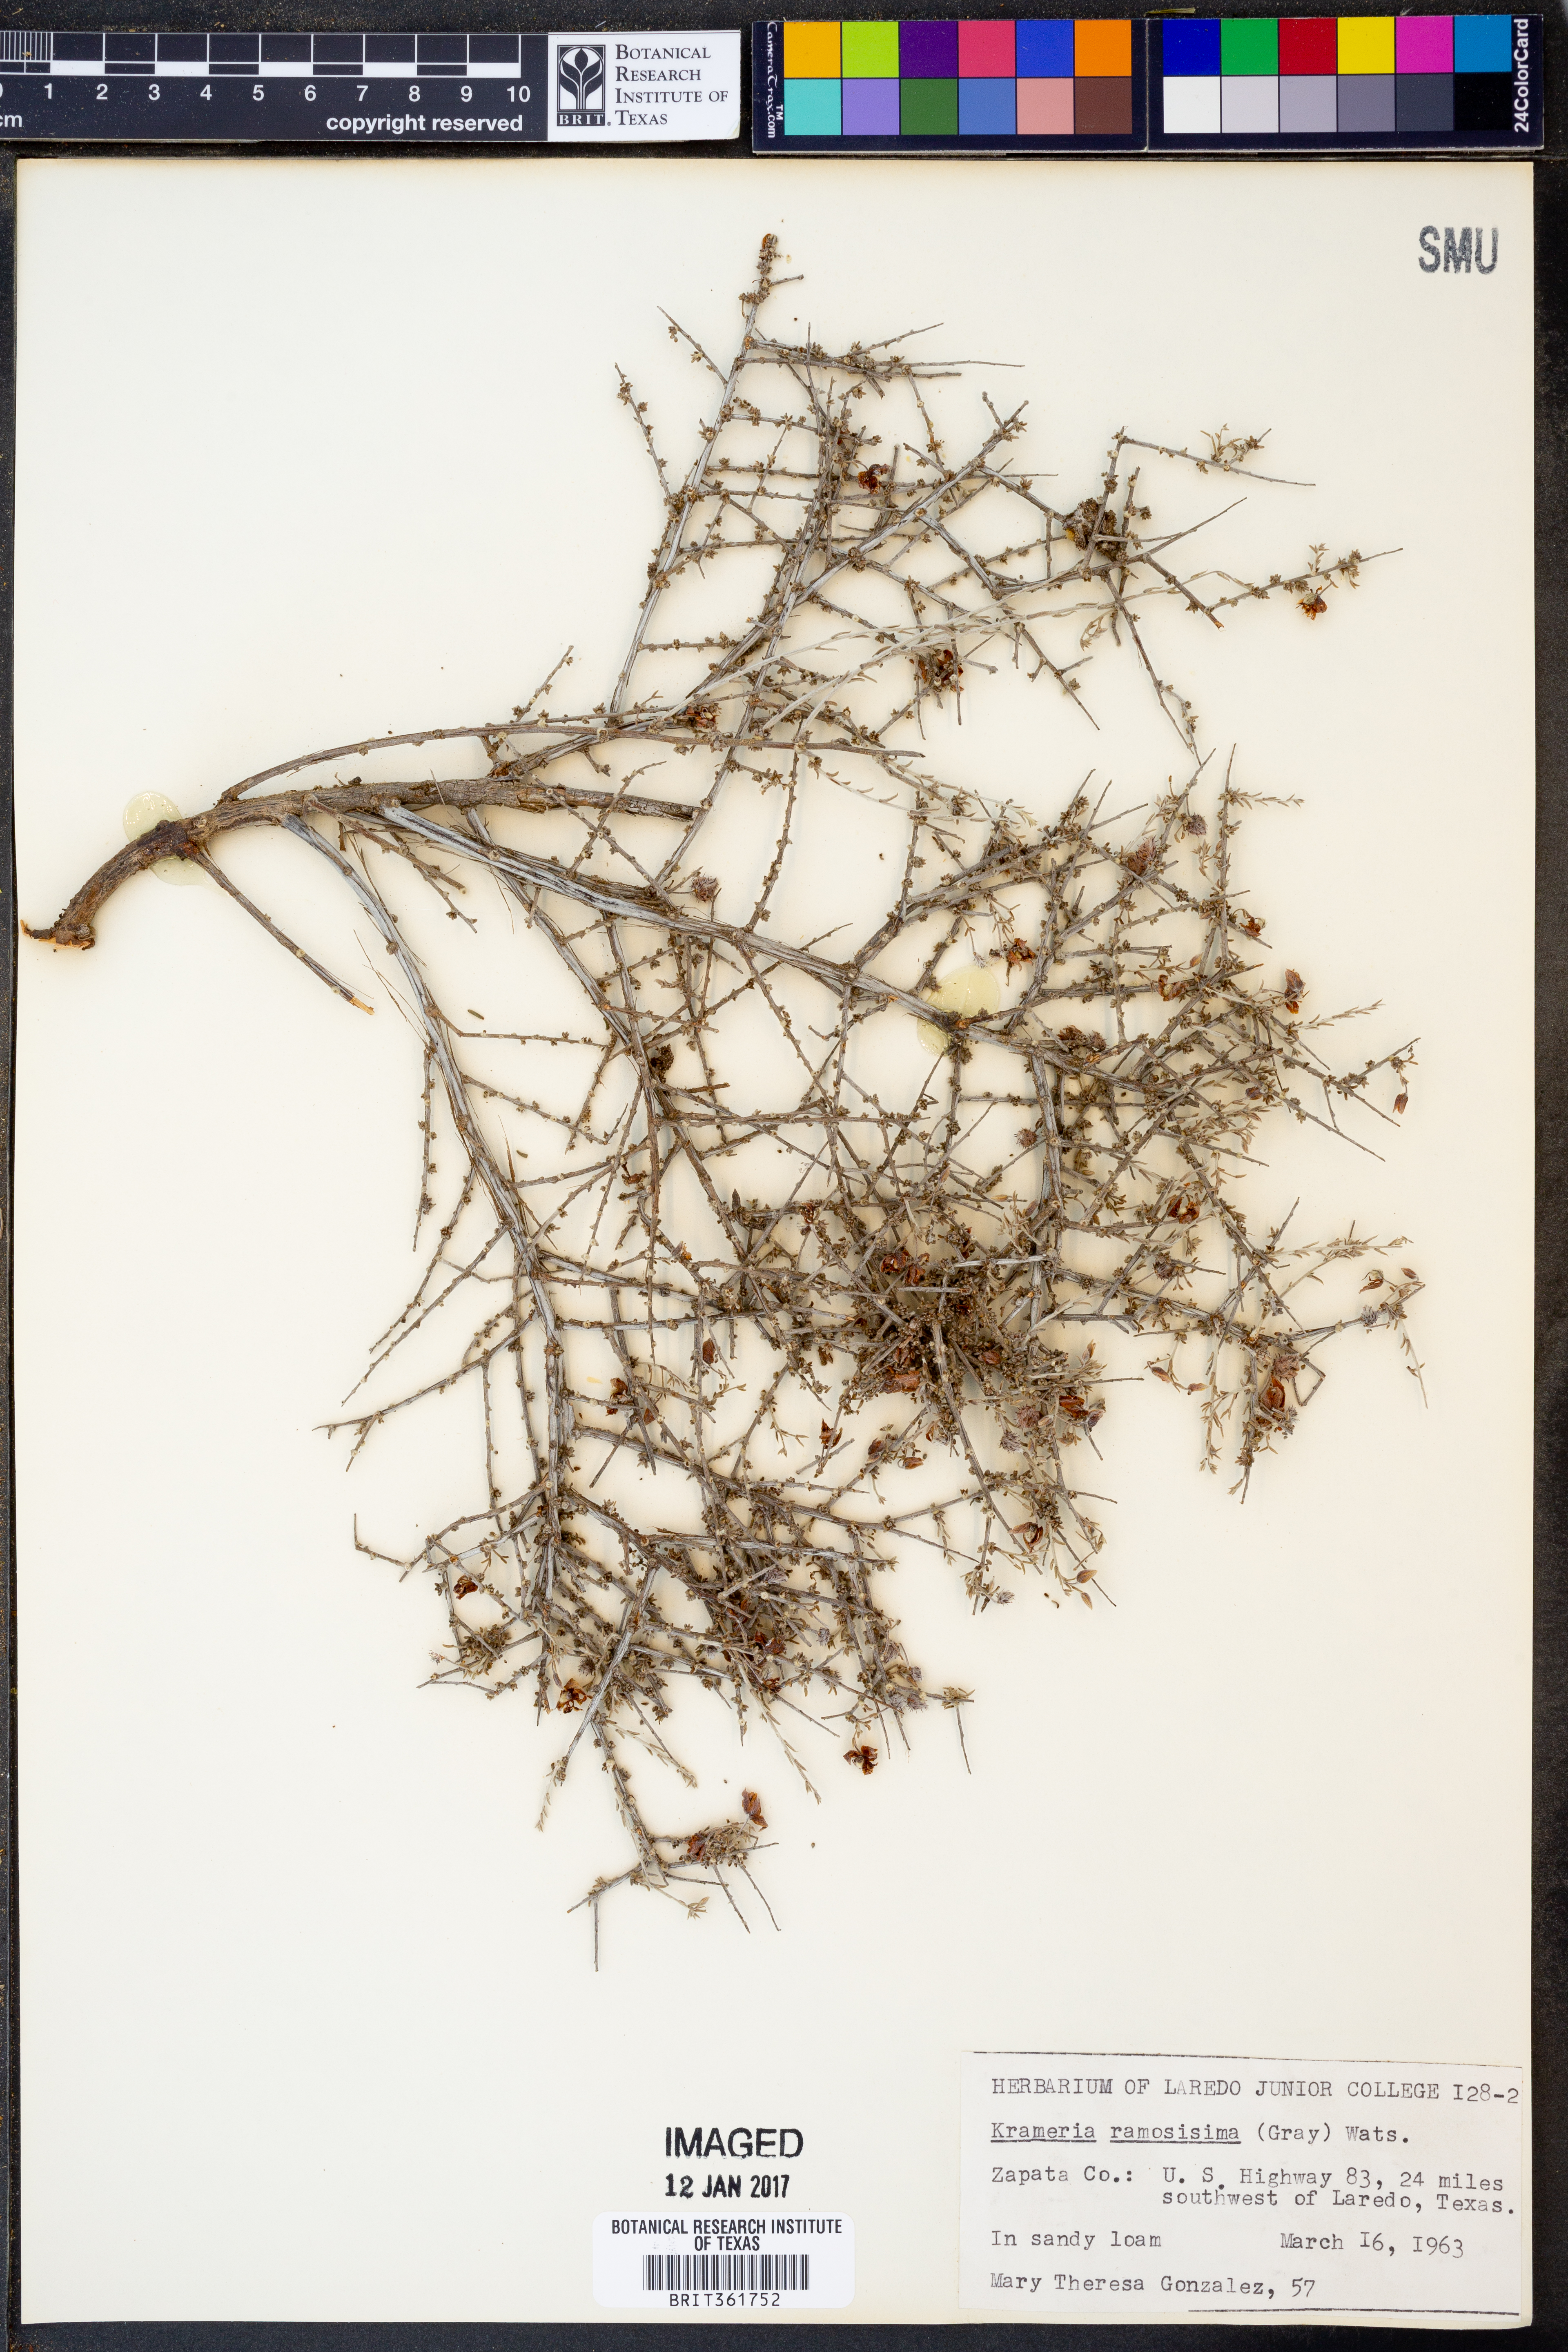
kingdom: Plantae
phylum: Tracheophyta
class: Magnoliopsida
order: Zygophyllales
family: Krameriaceae
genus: Krameria
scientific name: Krameria ramosissima
